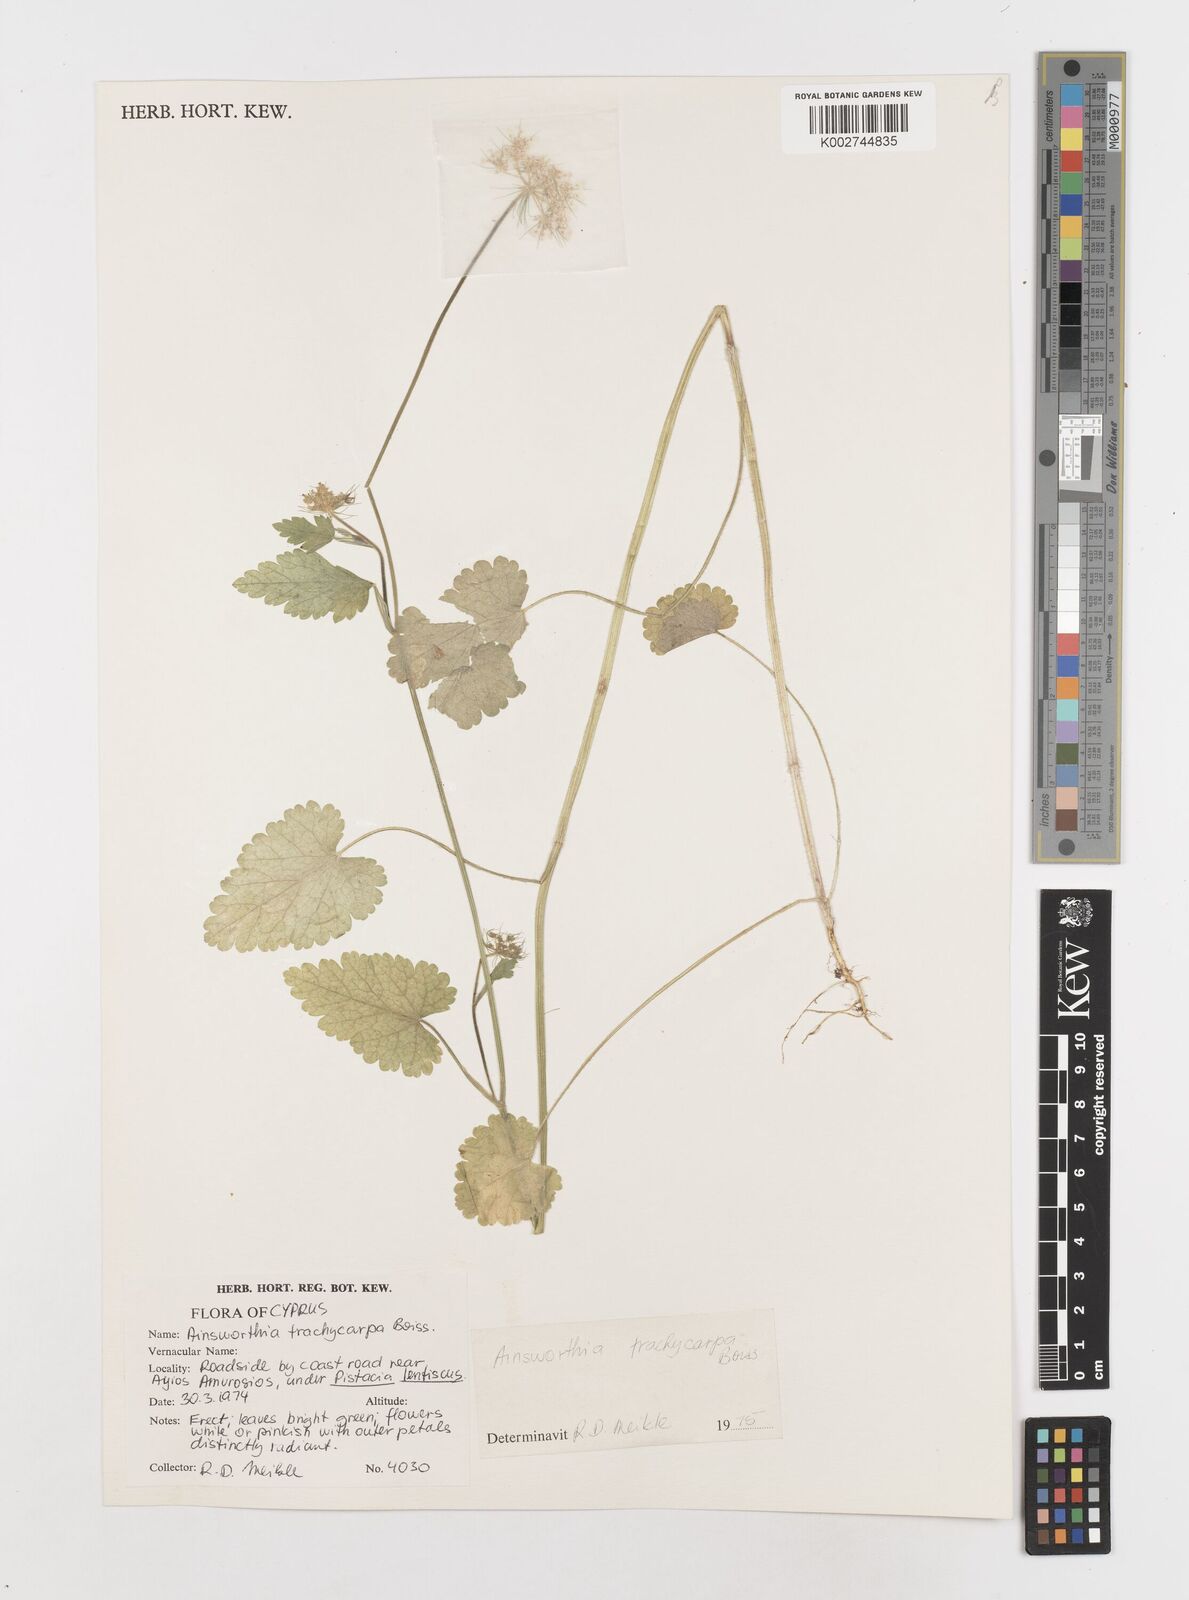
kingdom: Plantae
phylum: Tracheophyta
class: Magnoliopsida
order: Apiales
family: Apiaceae
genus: Ainsworthia
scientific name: Ainsworthia trachycarpa
